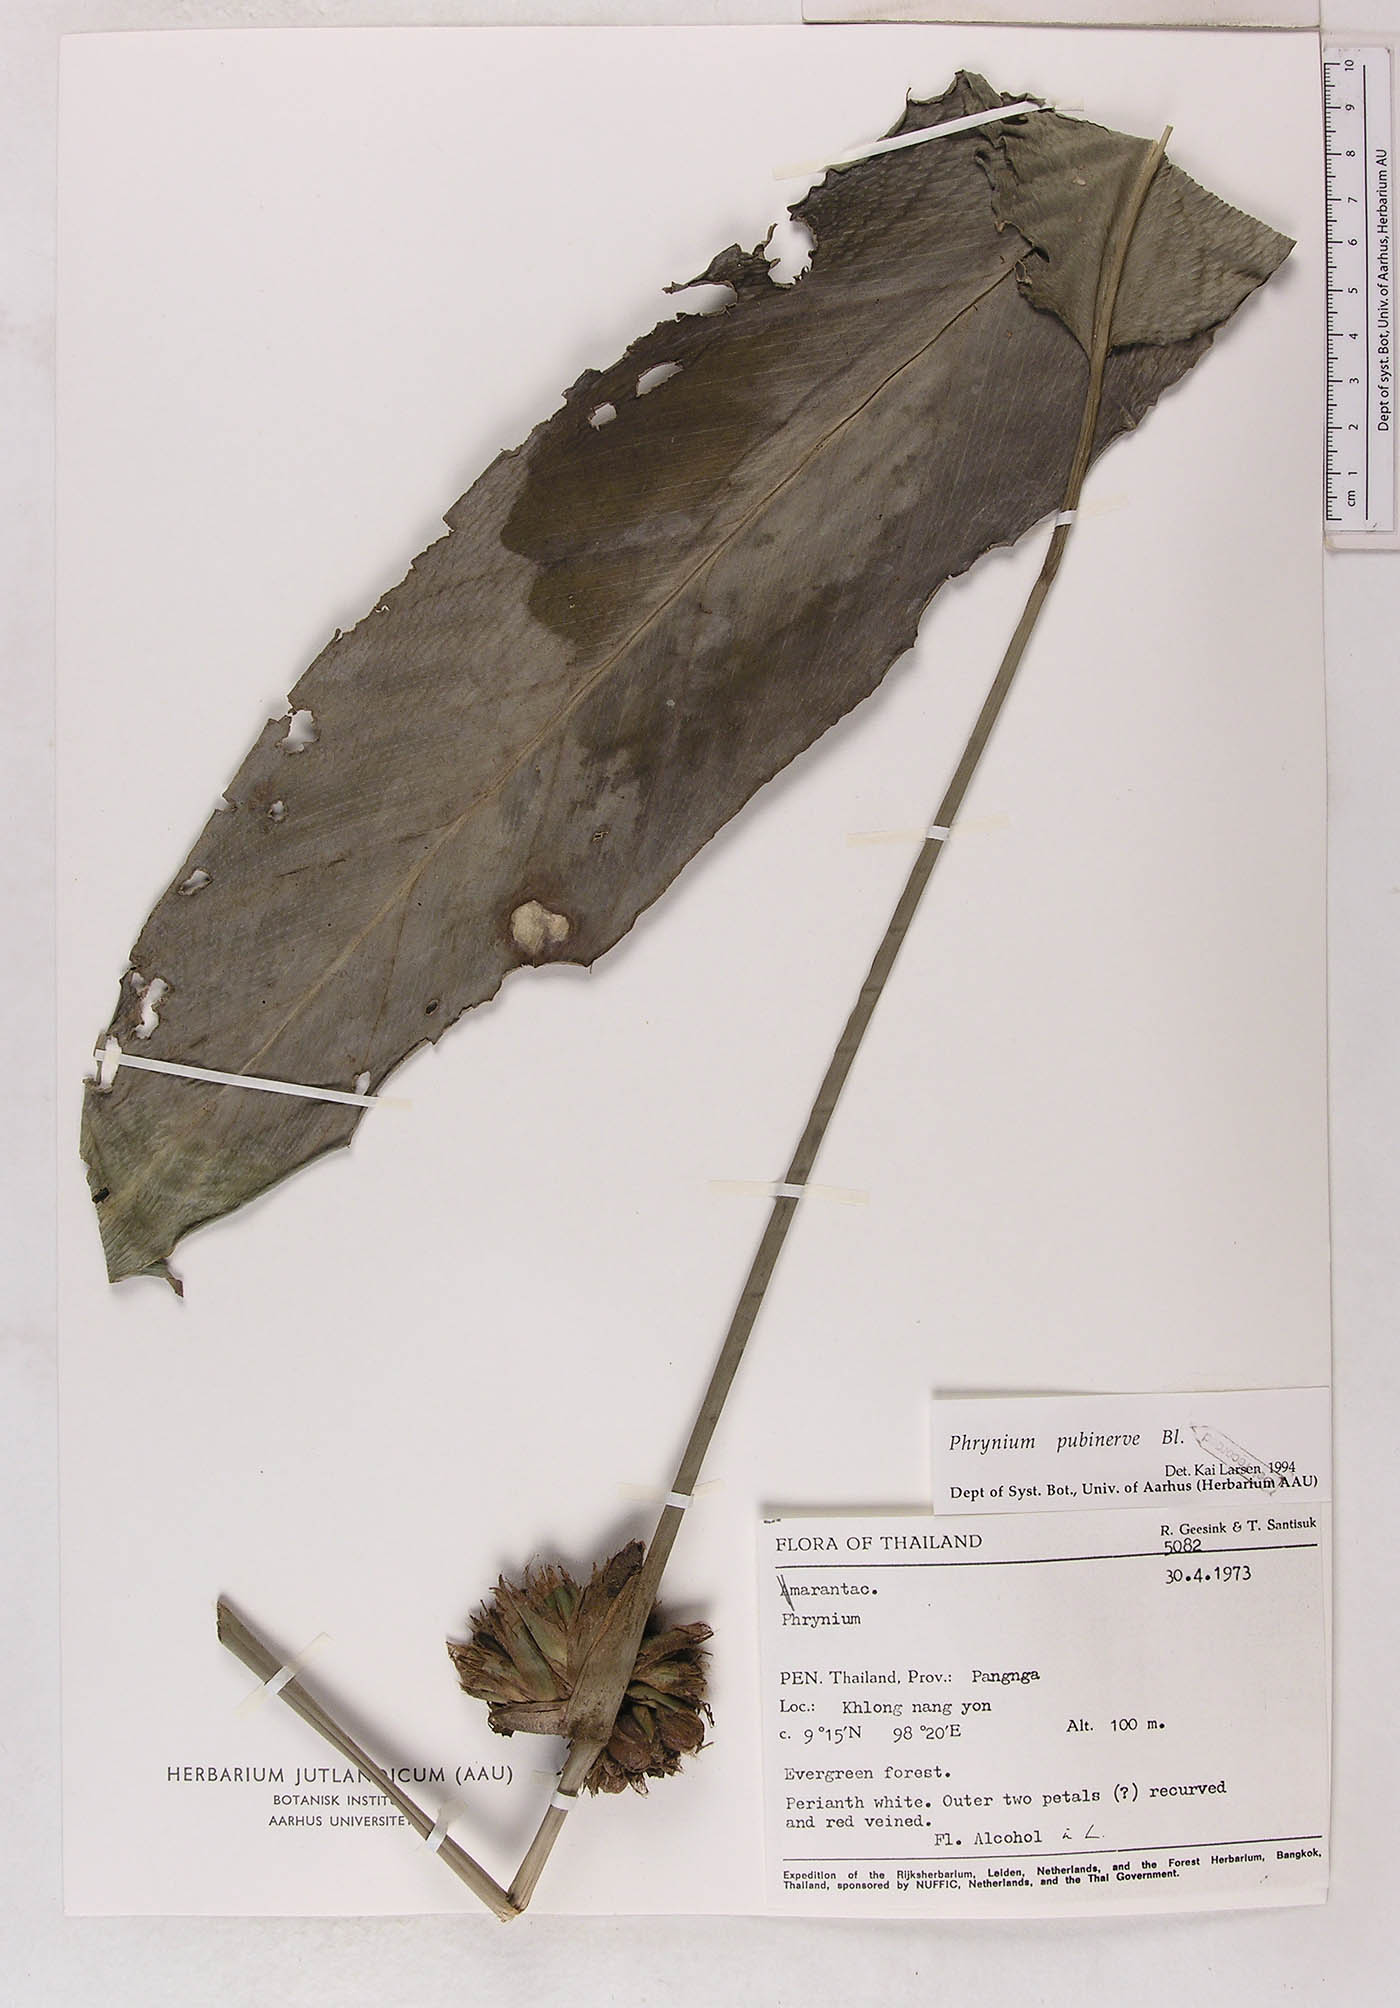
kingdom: Plantae
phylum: Tracheophyta
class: Liliopsida
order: Zingiberales
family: Marantaceae
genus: Phrynium
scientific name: Phrynium pubinerve
